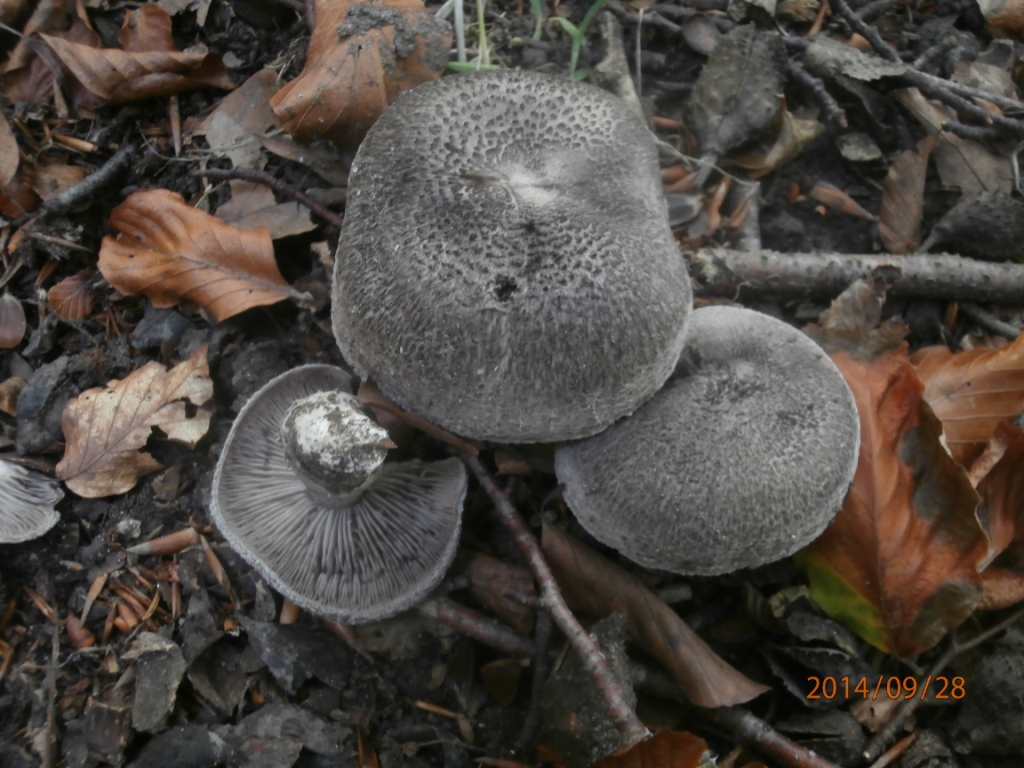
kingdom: Fungi
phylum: Basidiomycota
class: Agaricomycetes
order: Agaricales
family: Tricholomataceae
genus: Tricholoma
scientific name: Tricholoma atrosquamosum
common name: sortskællet ridderhat
